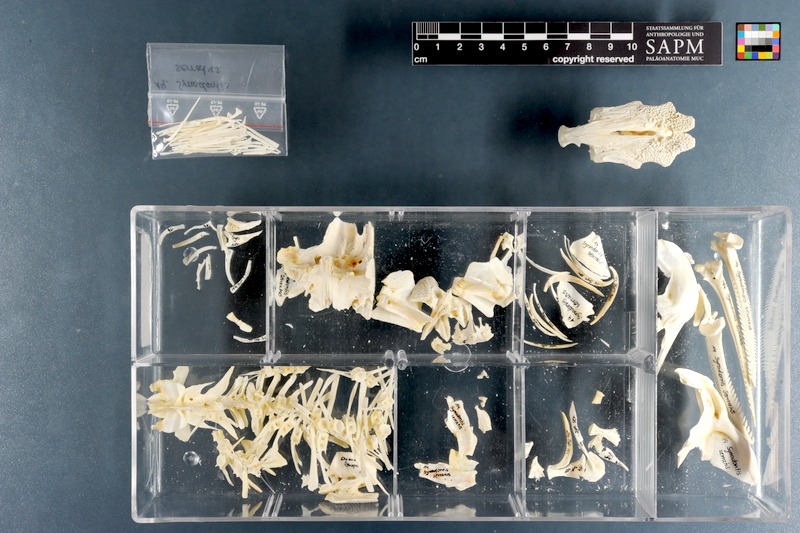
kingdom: Animalia
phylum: Chordata
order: Siluriformes
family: Mochokidae
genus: Synodontis
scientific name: Synodontis serratus
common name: Shield-head catfish
